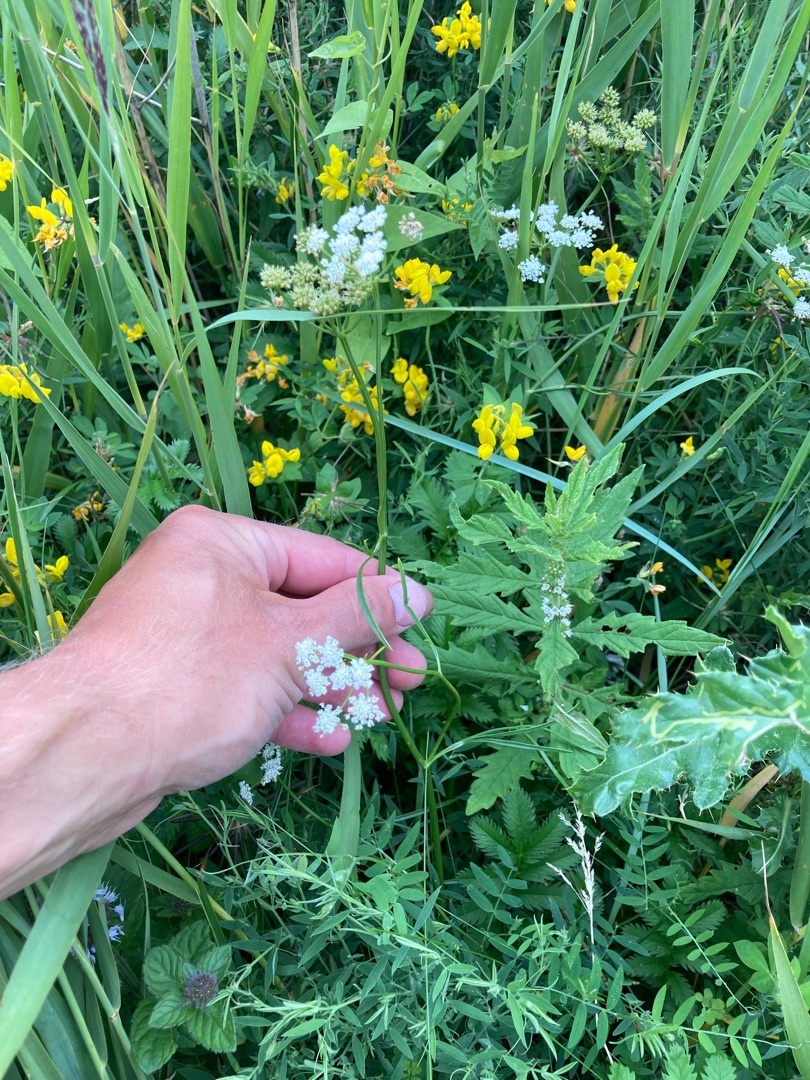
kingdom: Plantae
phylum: Tracheophyta
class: Magnoliopsida
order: Apiales
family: Apiaceae
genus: Oenanthe
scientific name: Oenanthe lachenalii
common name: Eng-klaseskærm
